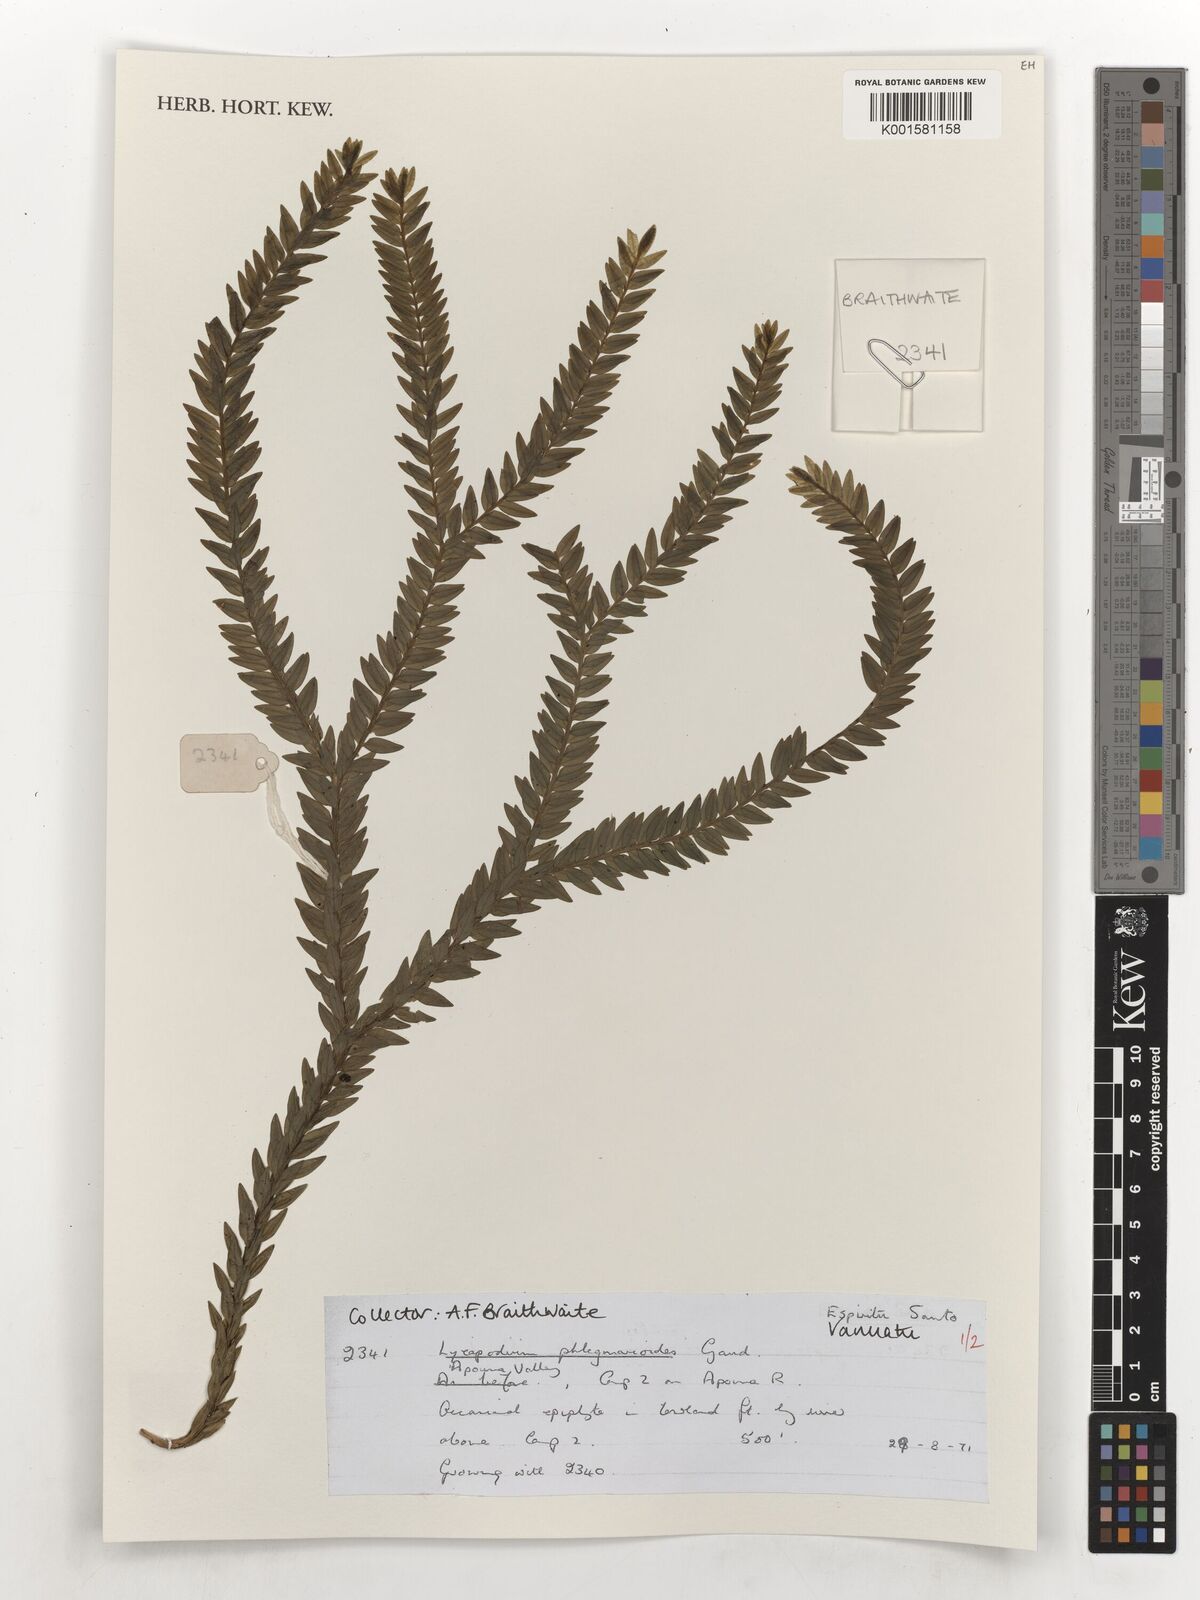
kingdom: Plantae
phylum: Tracheophyta
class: Lycopodiopsida
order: Lycopodiales
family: Lycopodiaceae
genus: Phlegmariurus
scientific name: Phlegmariurus phlegmarioides
